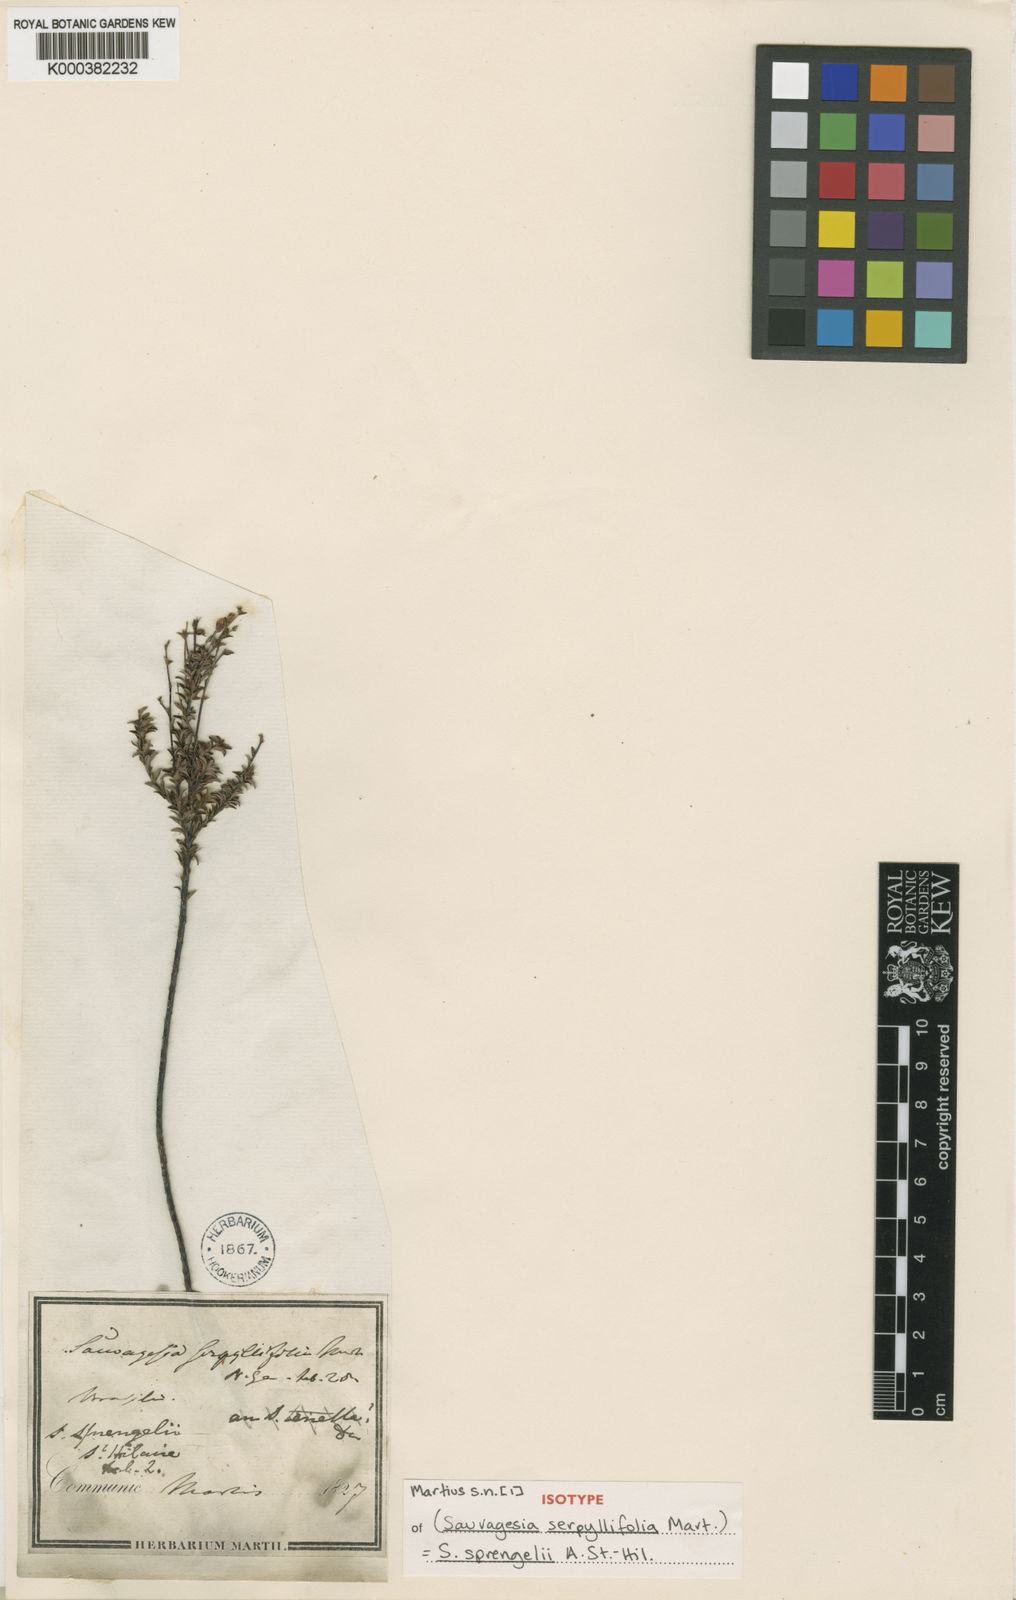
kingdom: Plantae
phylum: Tracheophyta
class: Magnoliopsida
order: Malpighiales
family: Ochnaceae
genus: Sauvagesia
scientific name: Sauvagesia sprengelii
